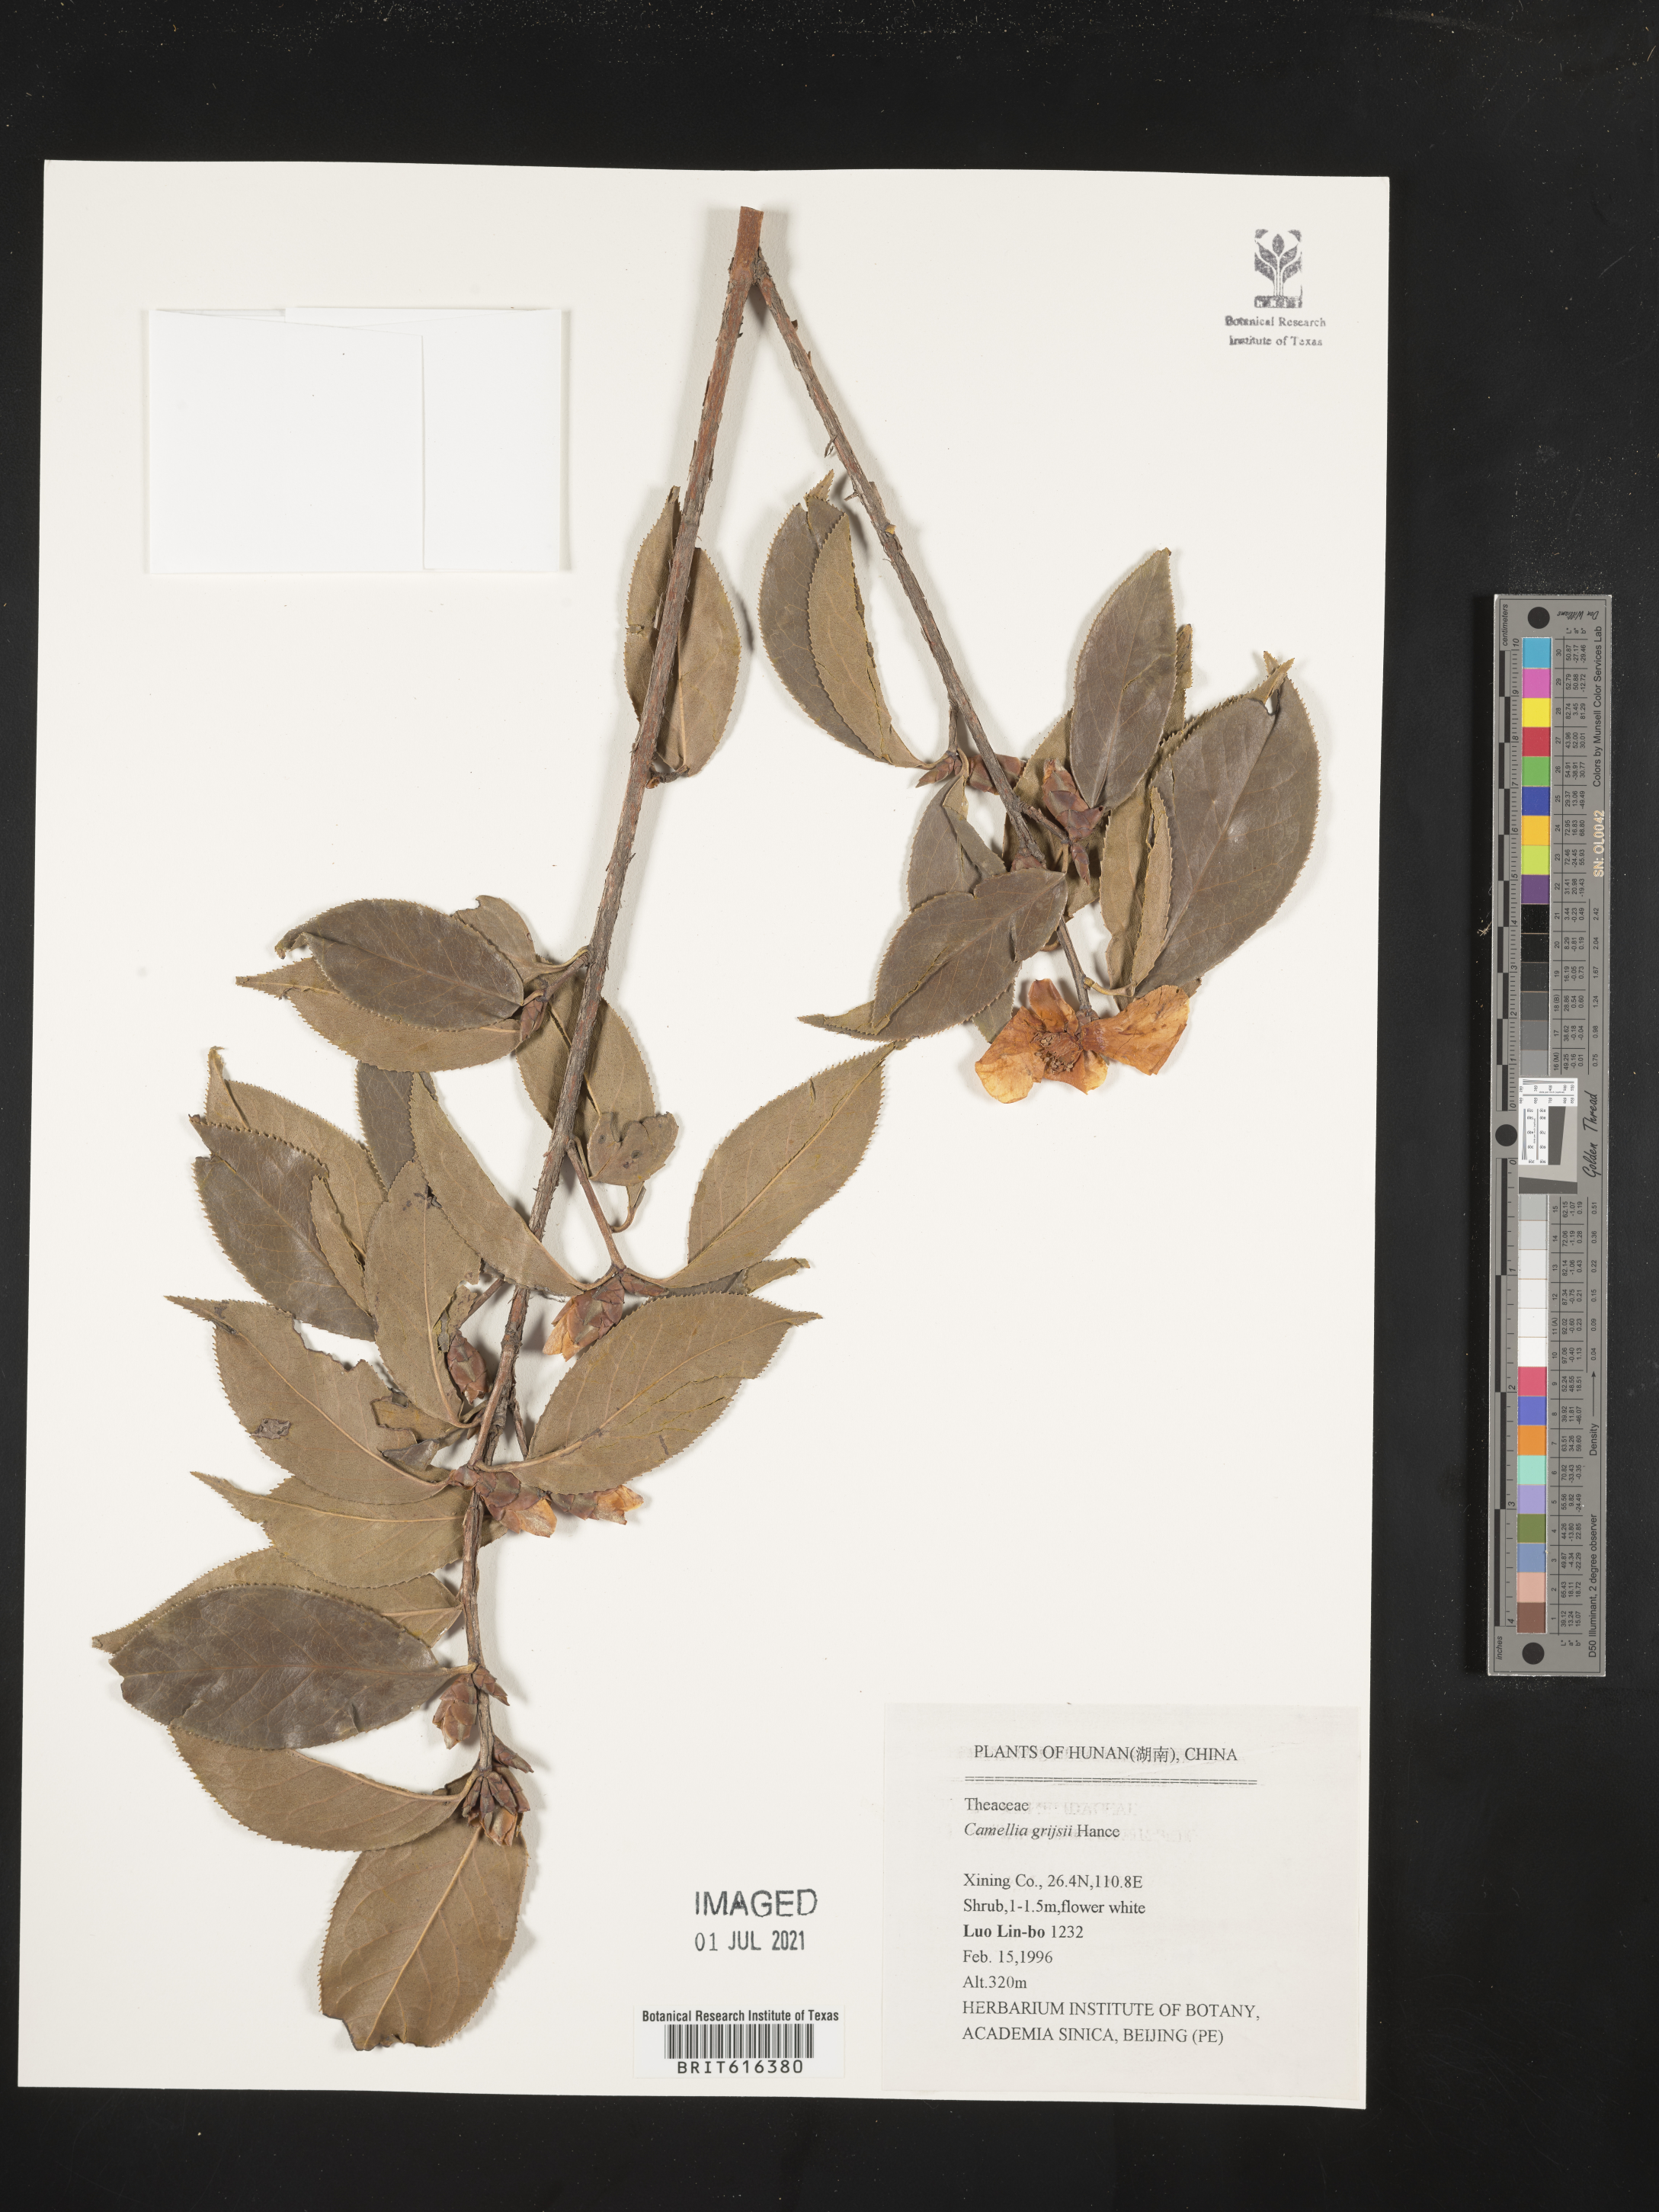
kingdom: Plantae
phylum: Tracheophyta
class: Magnoliopsida
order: Ericales
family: Theaceae
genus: Camellia
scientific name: Camellia grijsii
